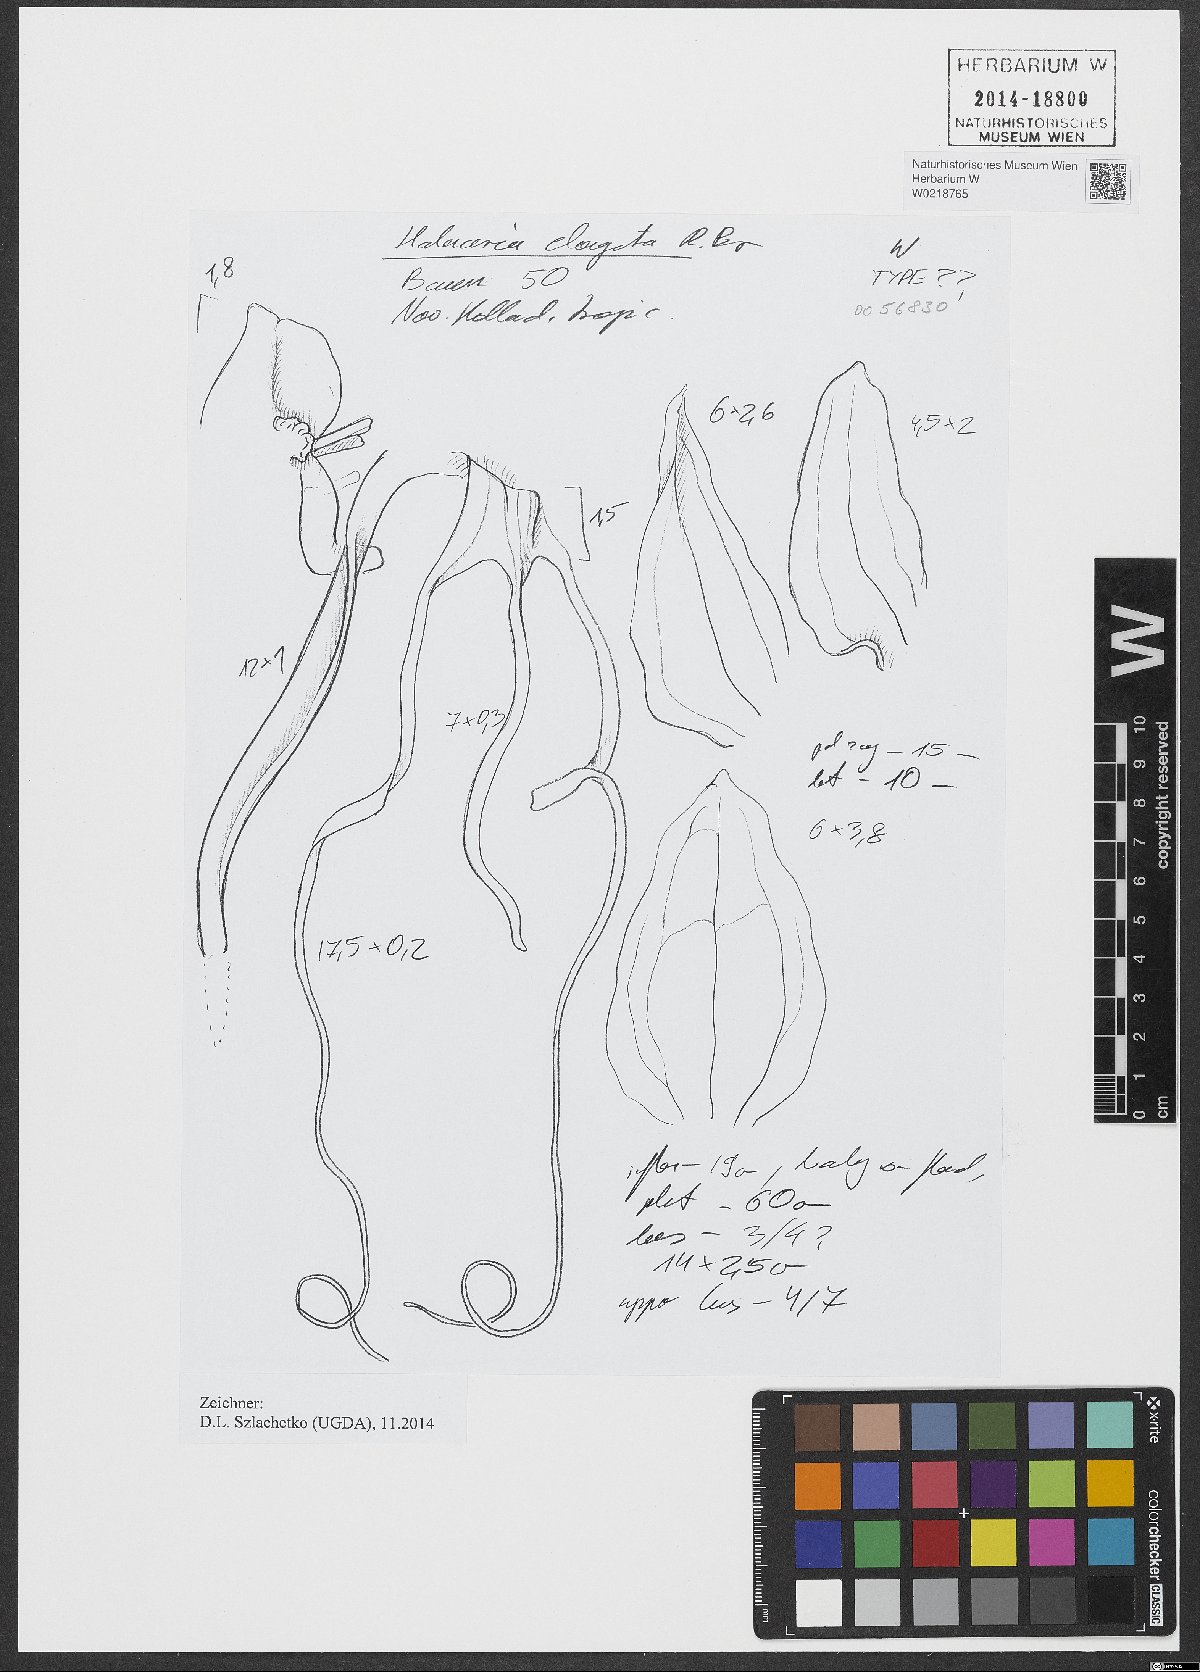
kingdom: Plantae
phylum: Tracheophyta
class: Liliopsida
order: Asparagales
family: Orchidaceae
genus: Habenaria
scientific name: Habenaria elongata
